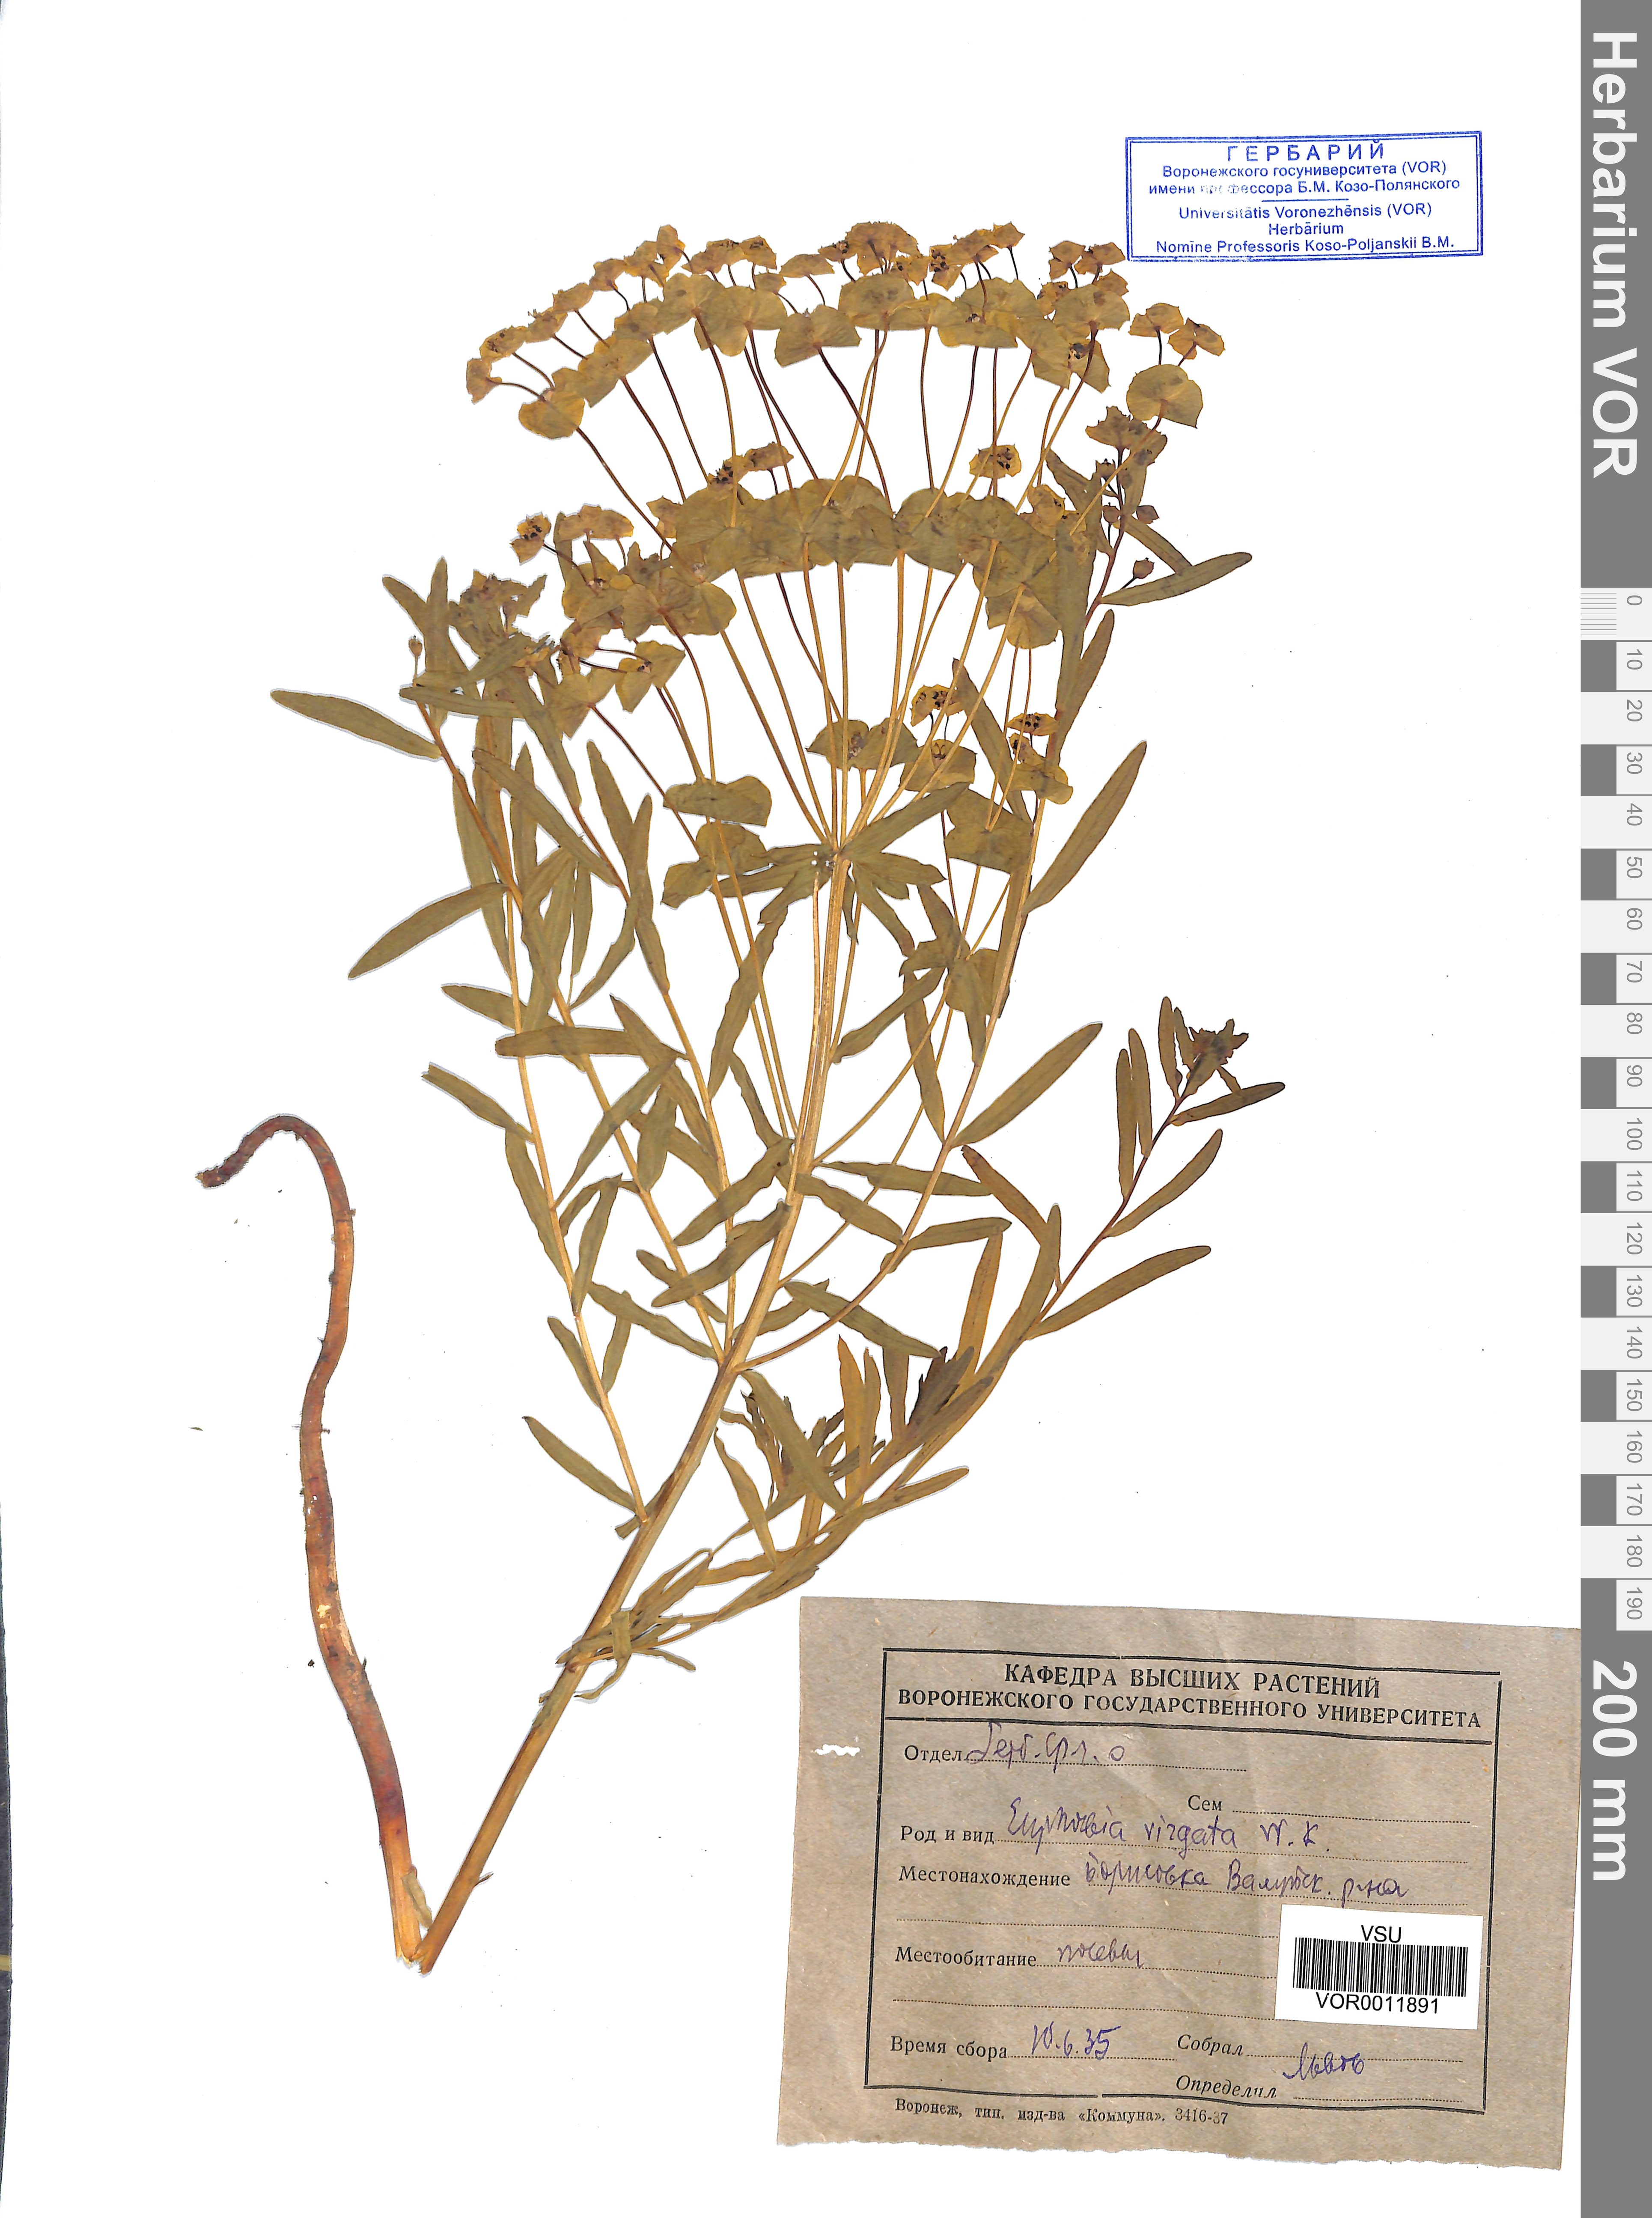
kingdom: Plantae
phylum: Tracheophyta
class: Magnoliopsida
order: Malpighiales
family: Euphorbiaceae
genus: Euphorbia
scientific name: Euphorbia virgata
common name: Leafy spurge
